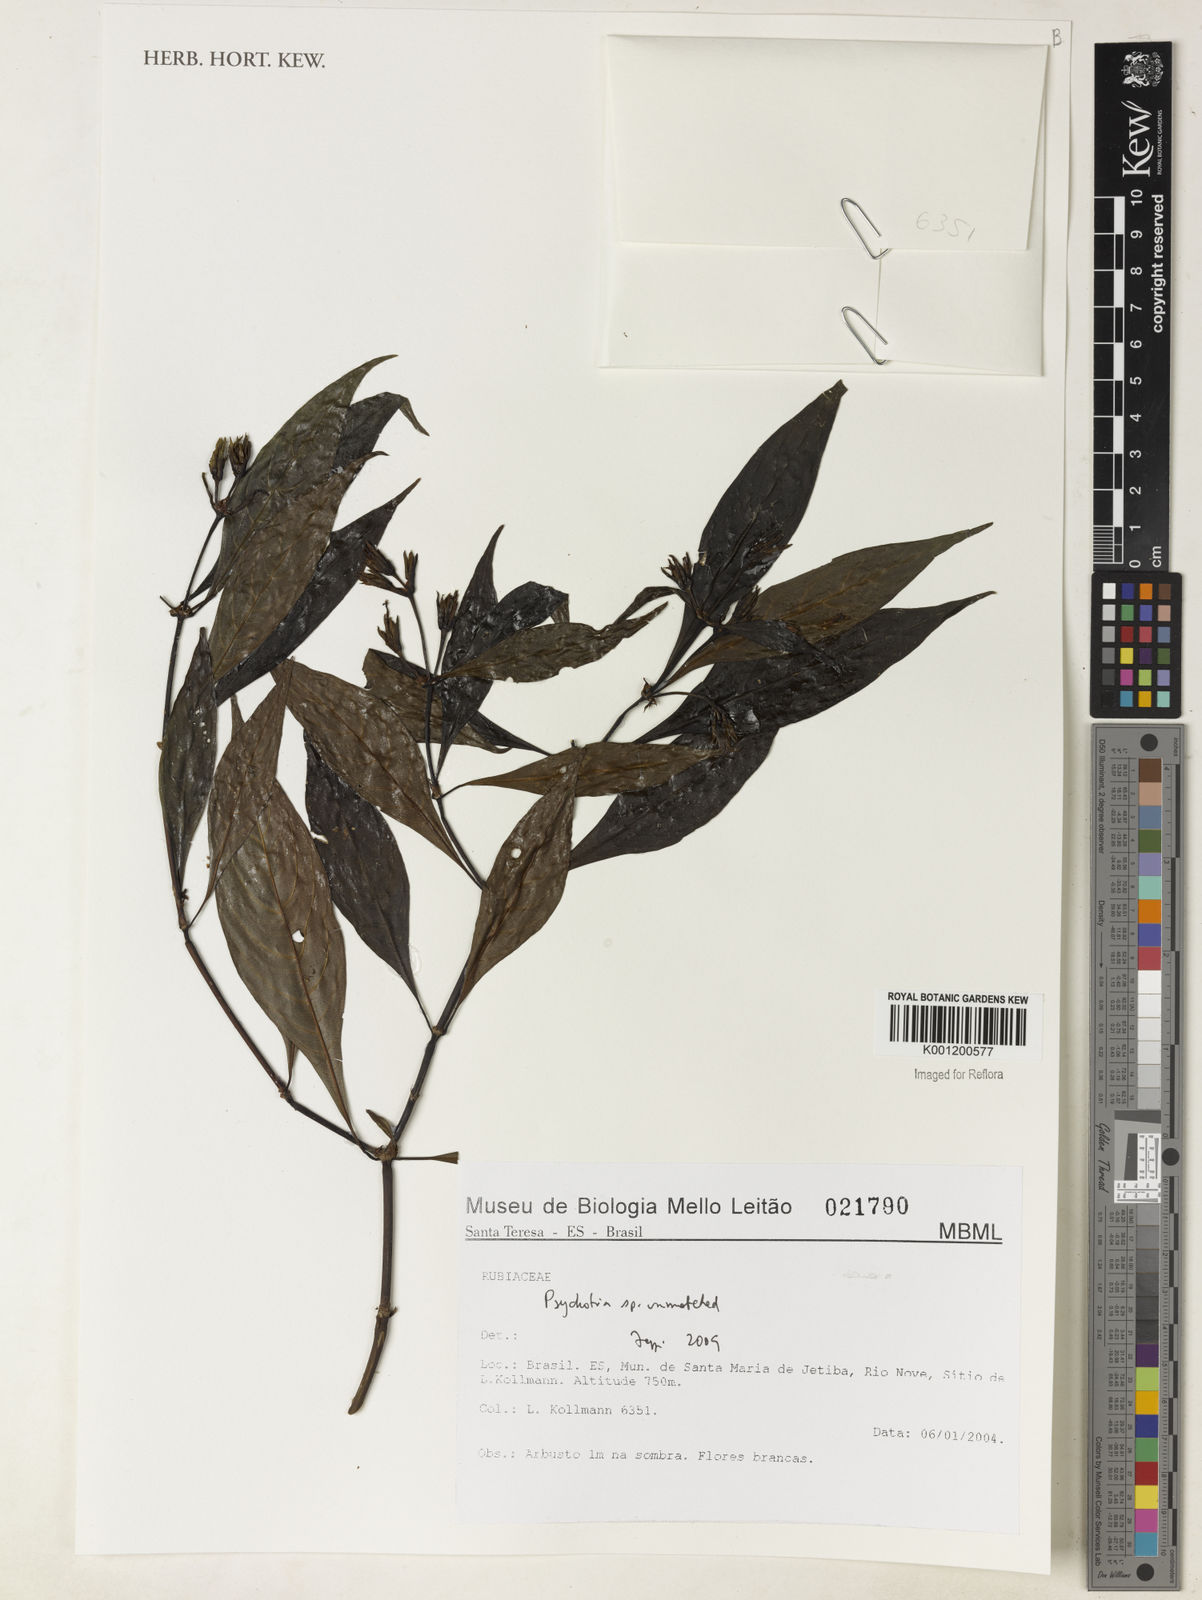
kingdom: Plantae
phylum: Tracheophyta
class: Magnoliopsida
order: Gentianales
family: Rubiaceae
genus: Psychotria
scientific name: Psychotria
